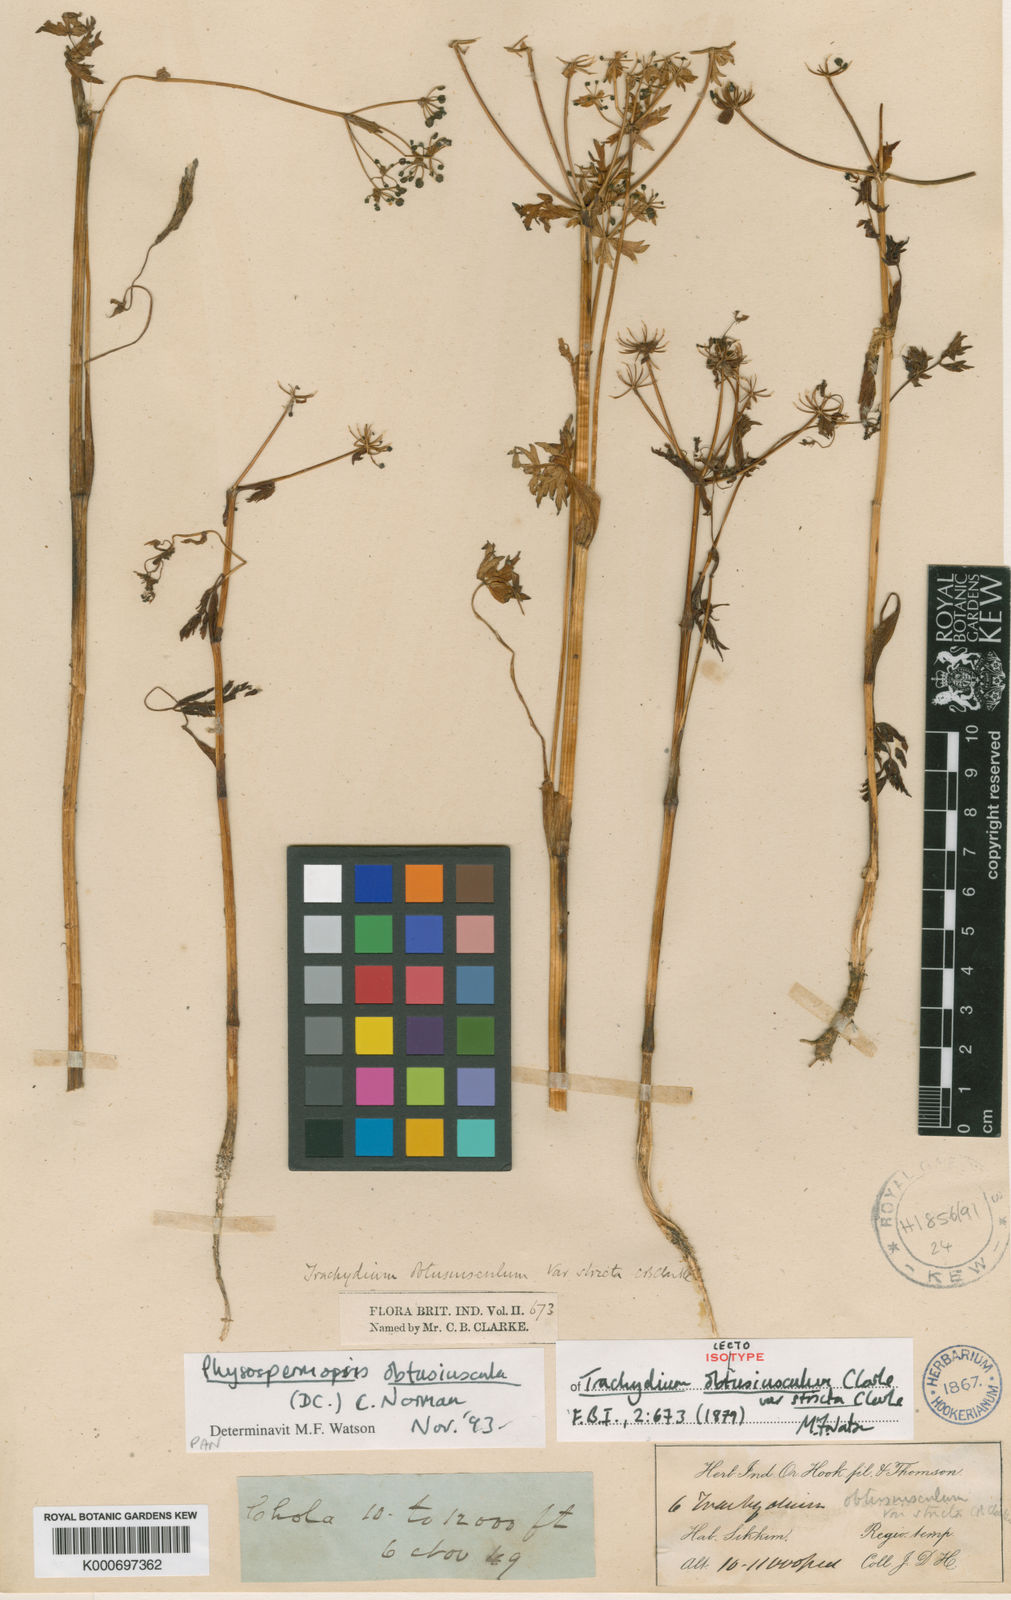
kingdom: Plantae
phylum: Tracheophyta
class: Magnoliopsida
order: Apiales
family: Apiaceae
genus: Physospermopsis
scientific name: Physospermopsis obtusiuscula
